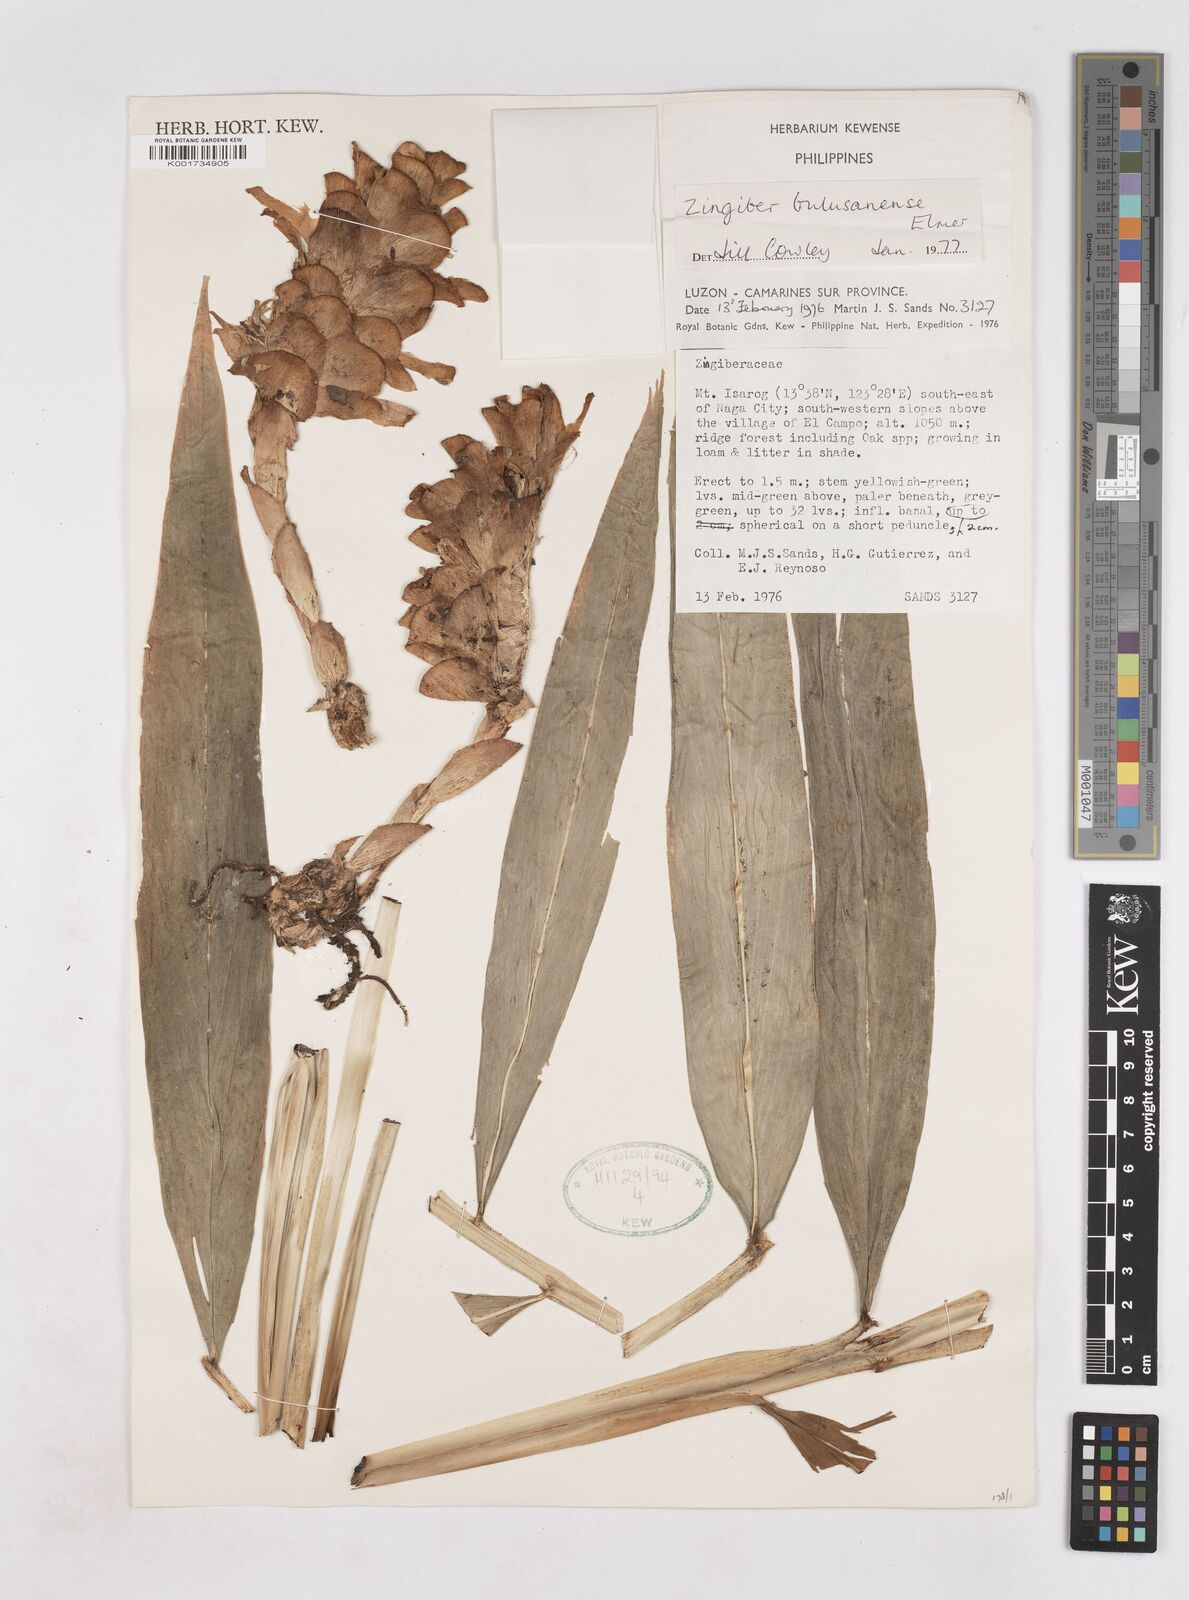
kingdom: Plantae
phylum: Tracheophyta
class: Liliopsida
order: Zingiberales
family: Zingiberaceae
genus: Zingiber
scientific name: Zingiber bulusanense
